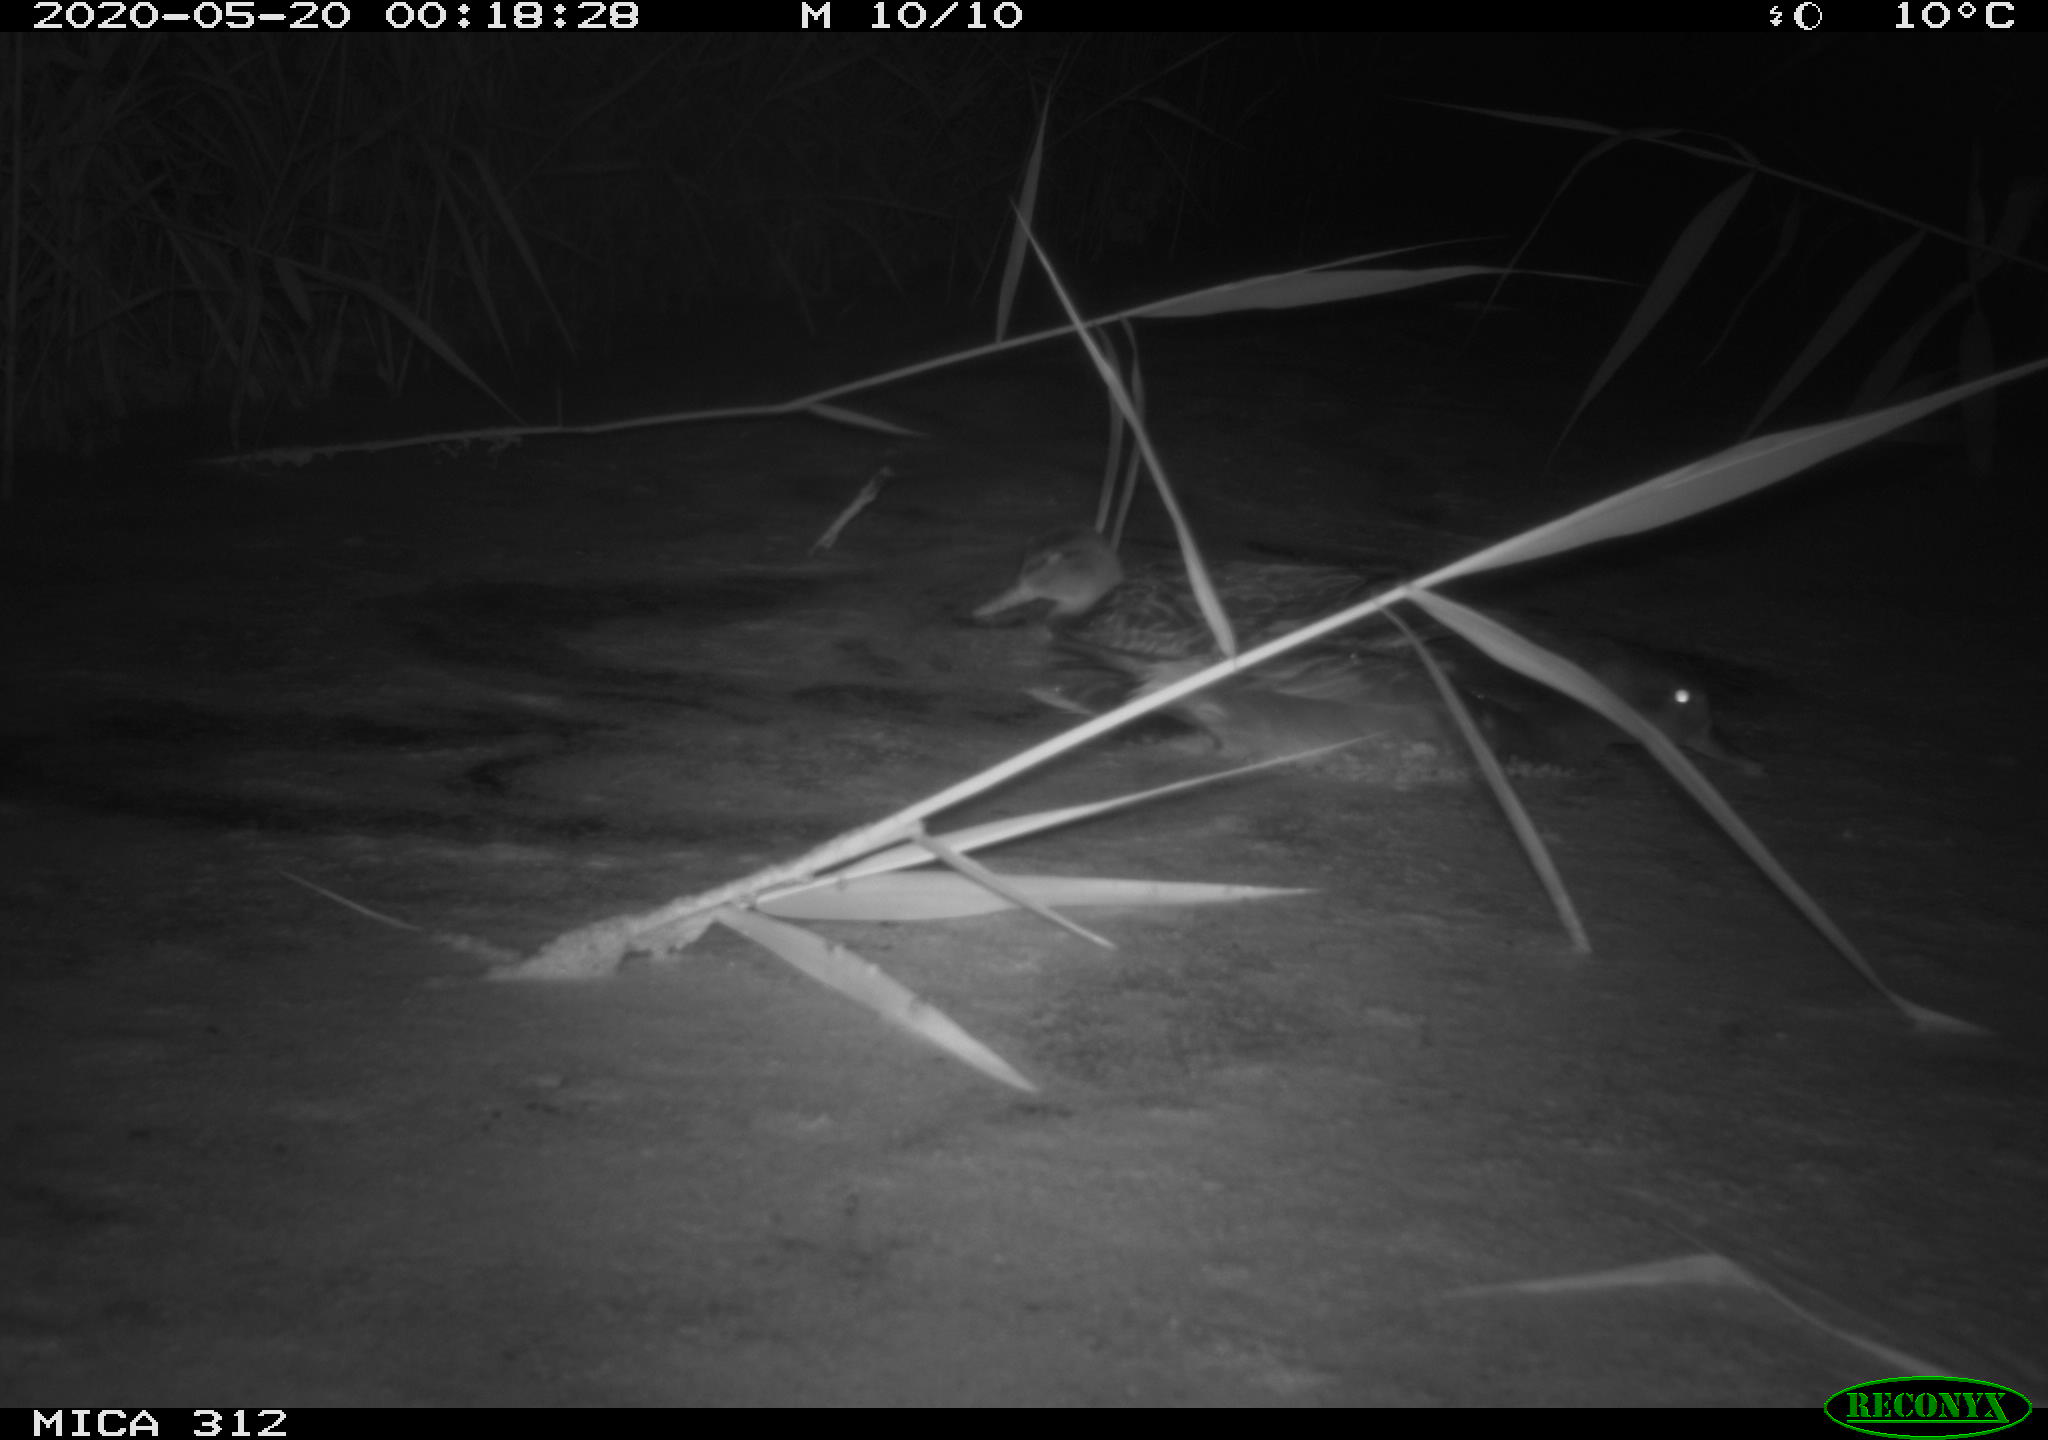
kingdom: Animalia
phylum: Chordata
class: Aves
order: Anseriformes
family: Anatidae
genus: Anas
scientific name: Anas platyrhynchos
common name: Mallard
